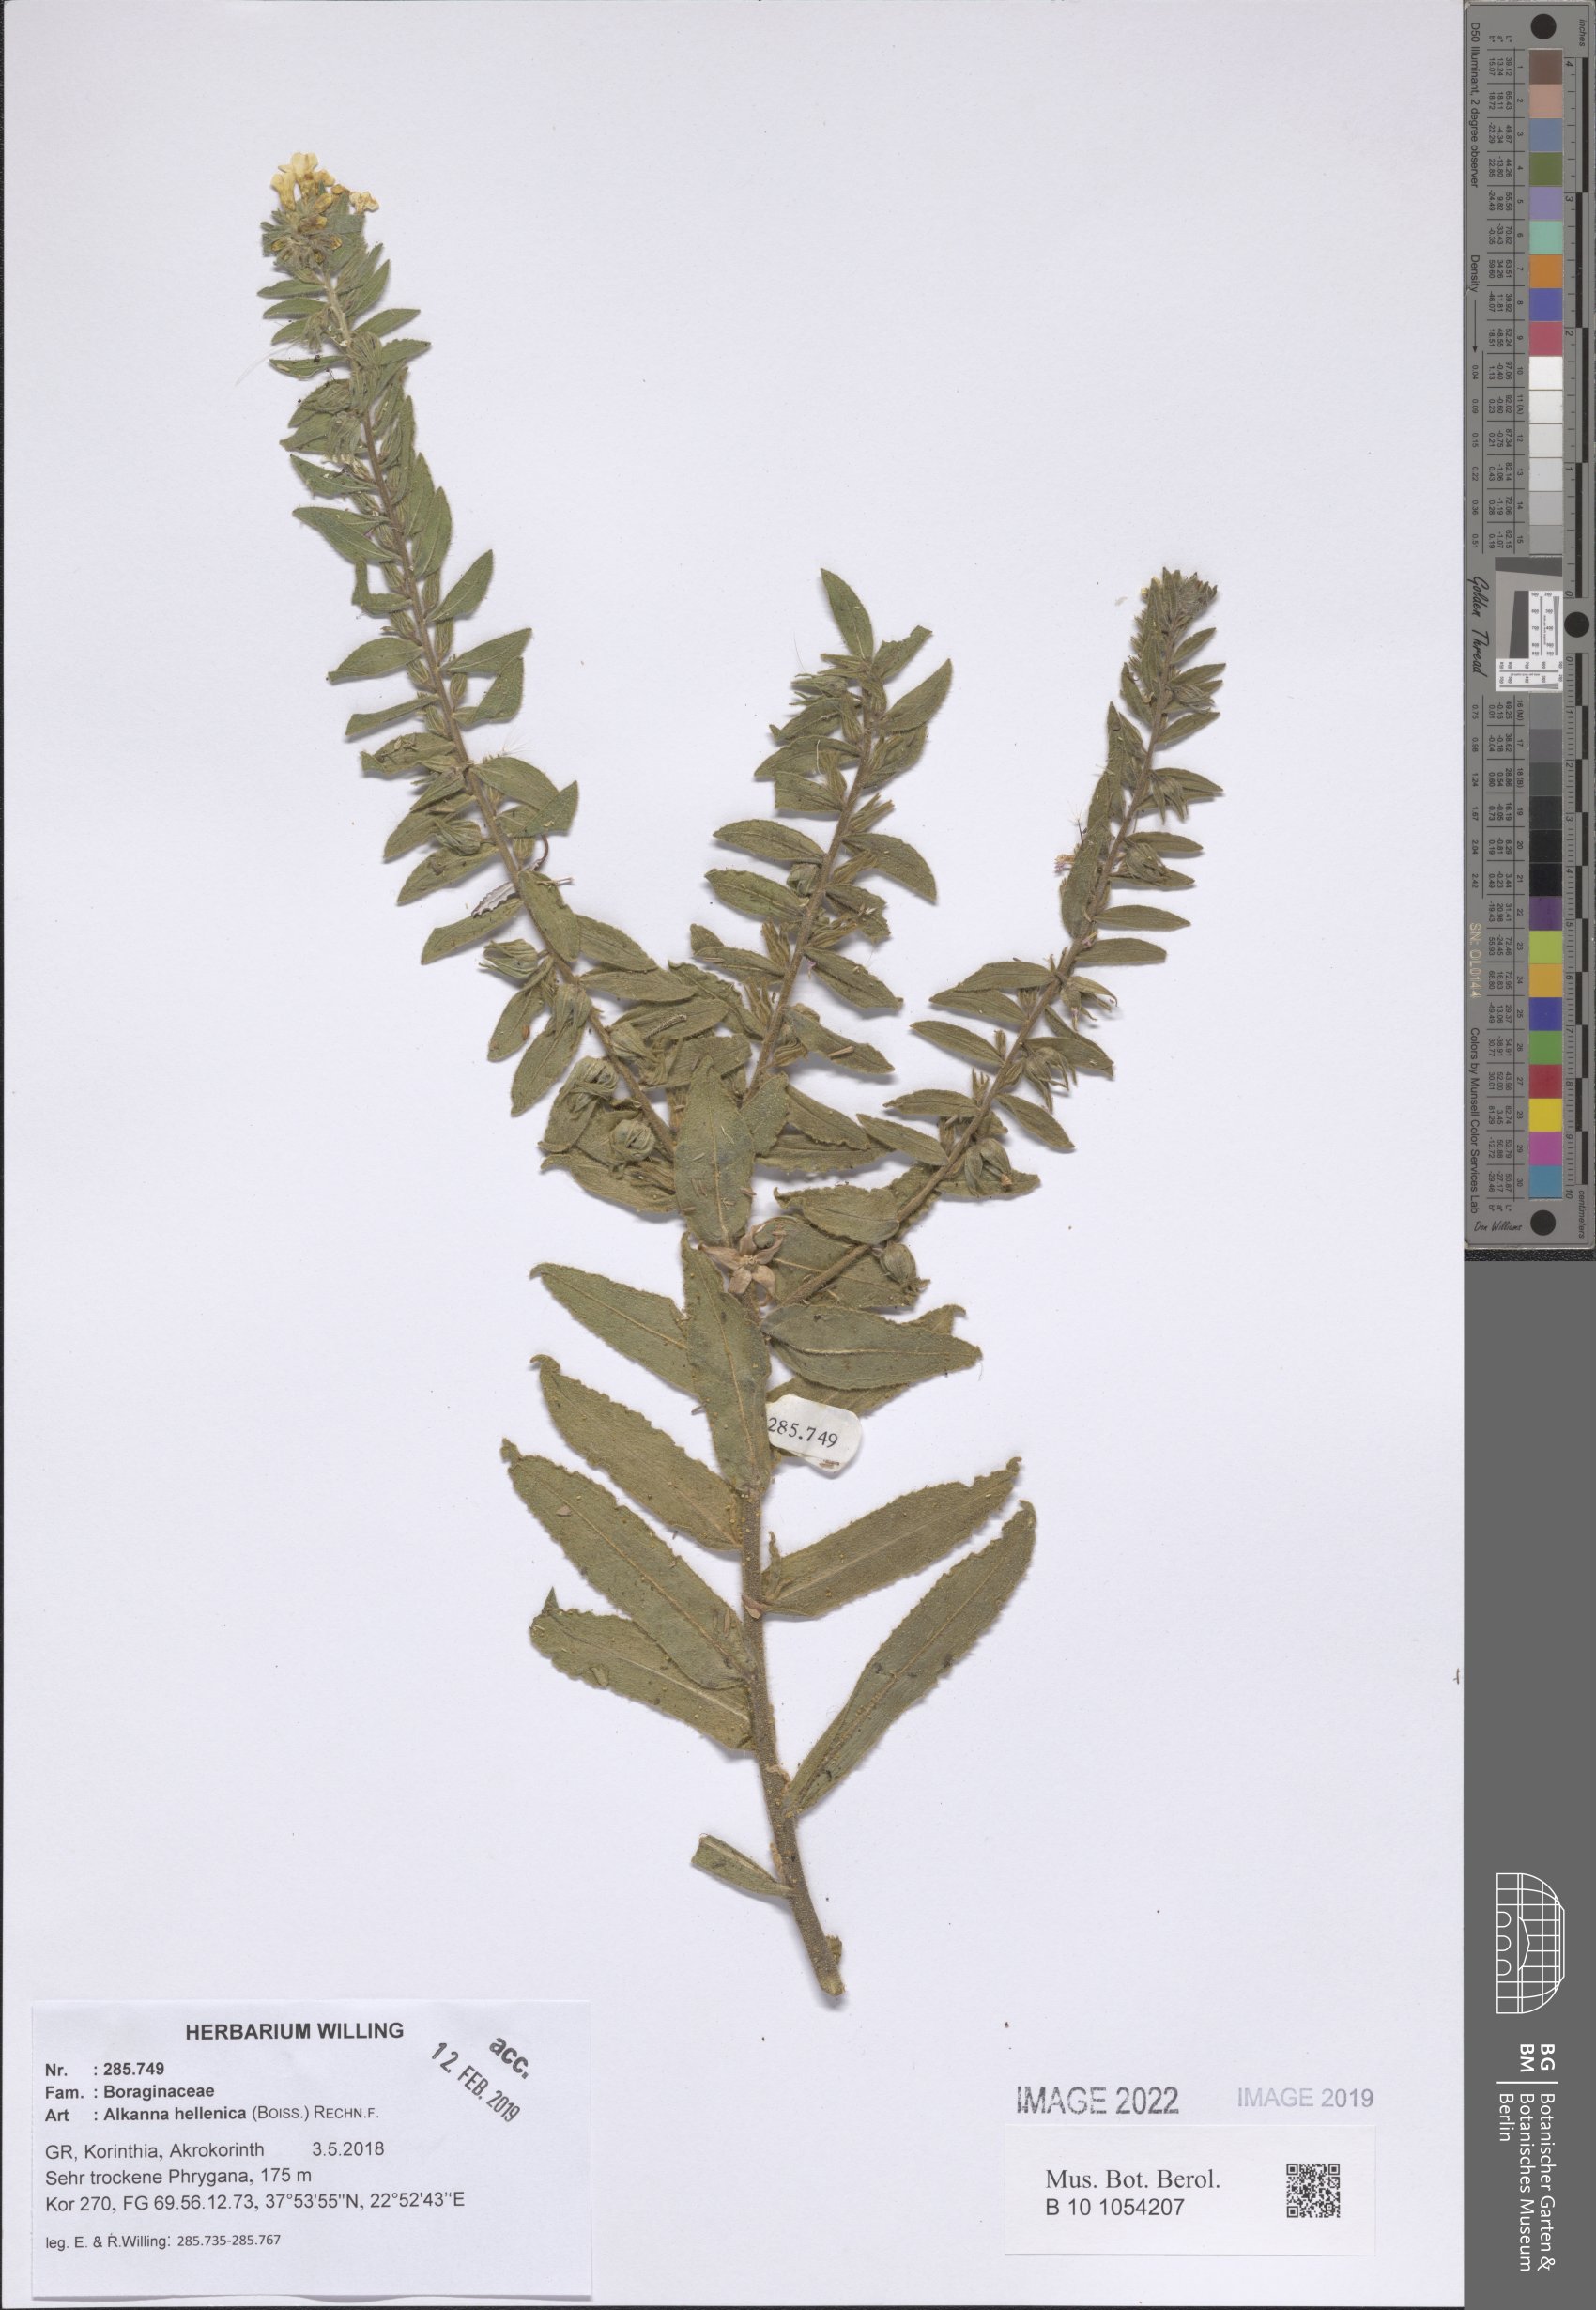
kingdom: Plantae
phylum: Tracheophyta
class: Magnoliopsida
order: Boraginales
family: Boraginaceae
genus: Alkanna
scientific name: Alkanna hellenica
